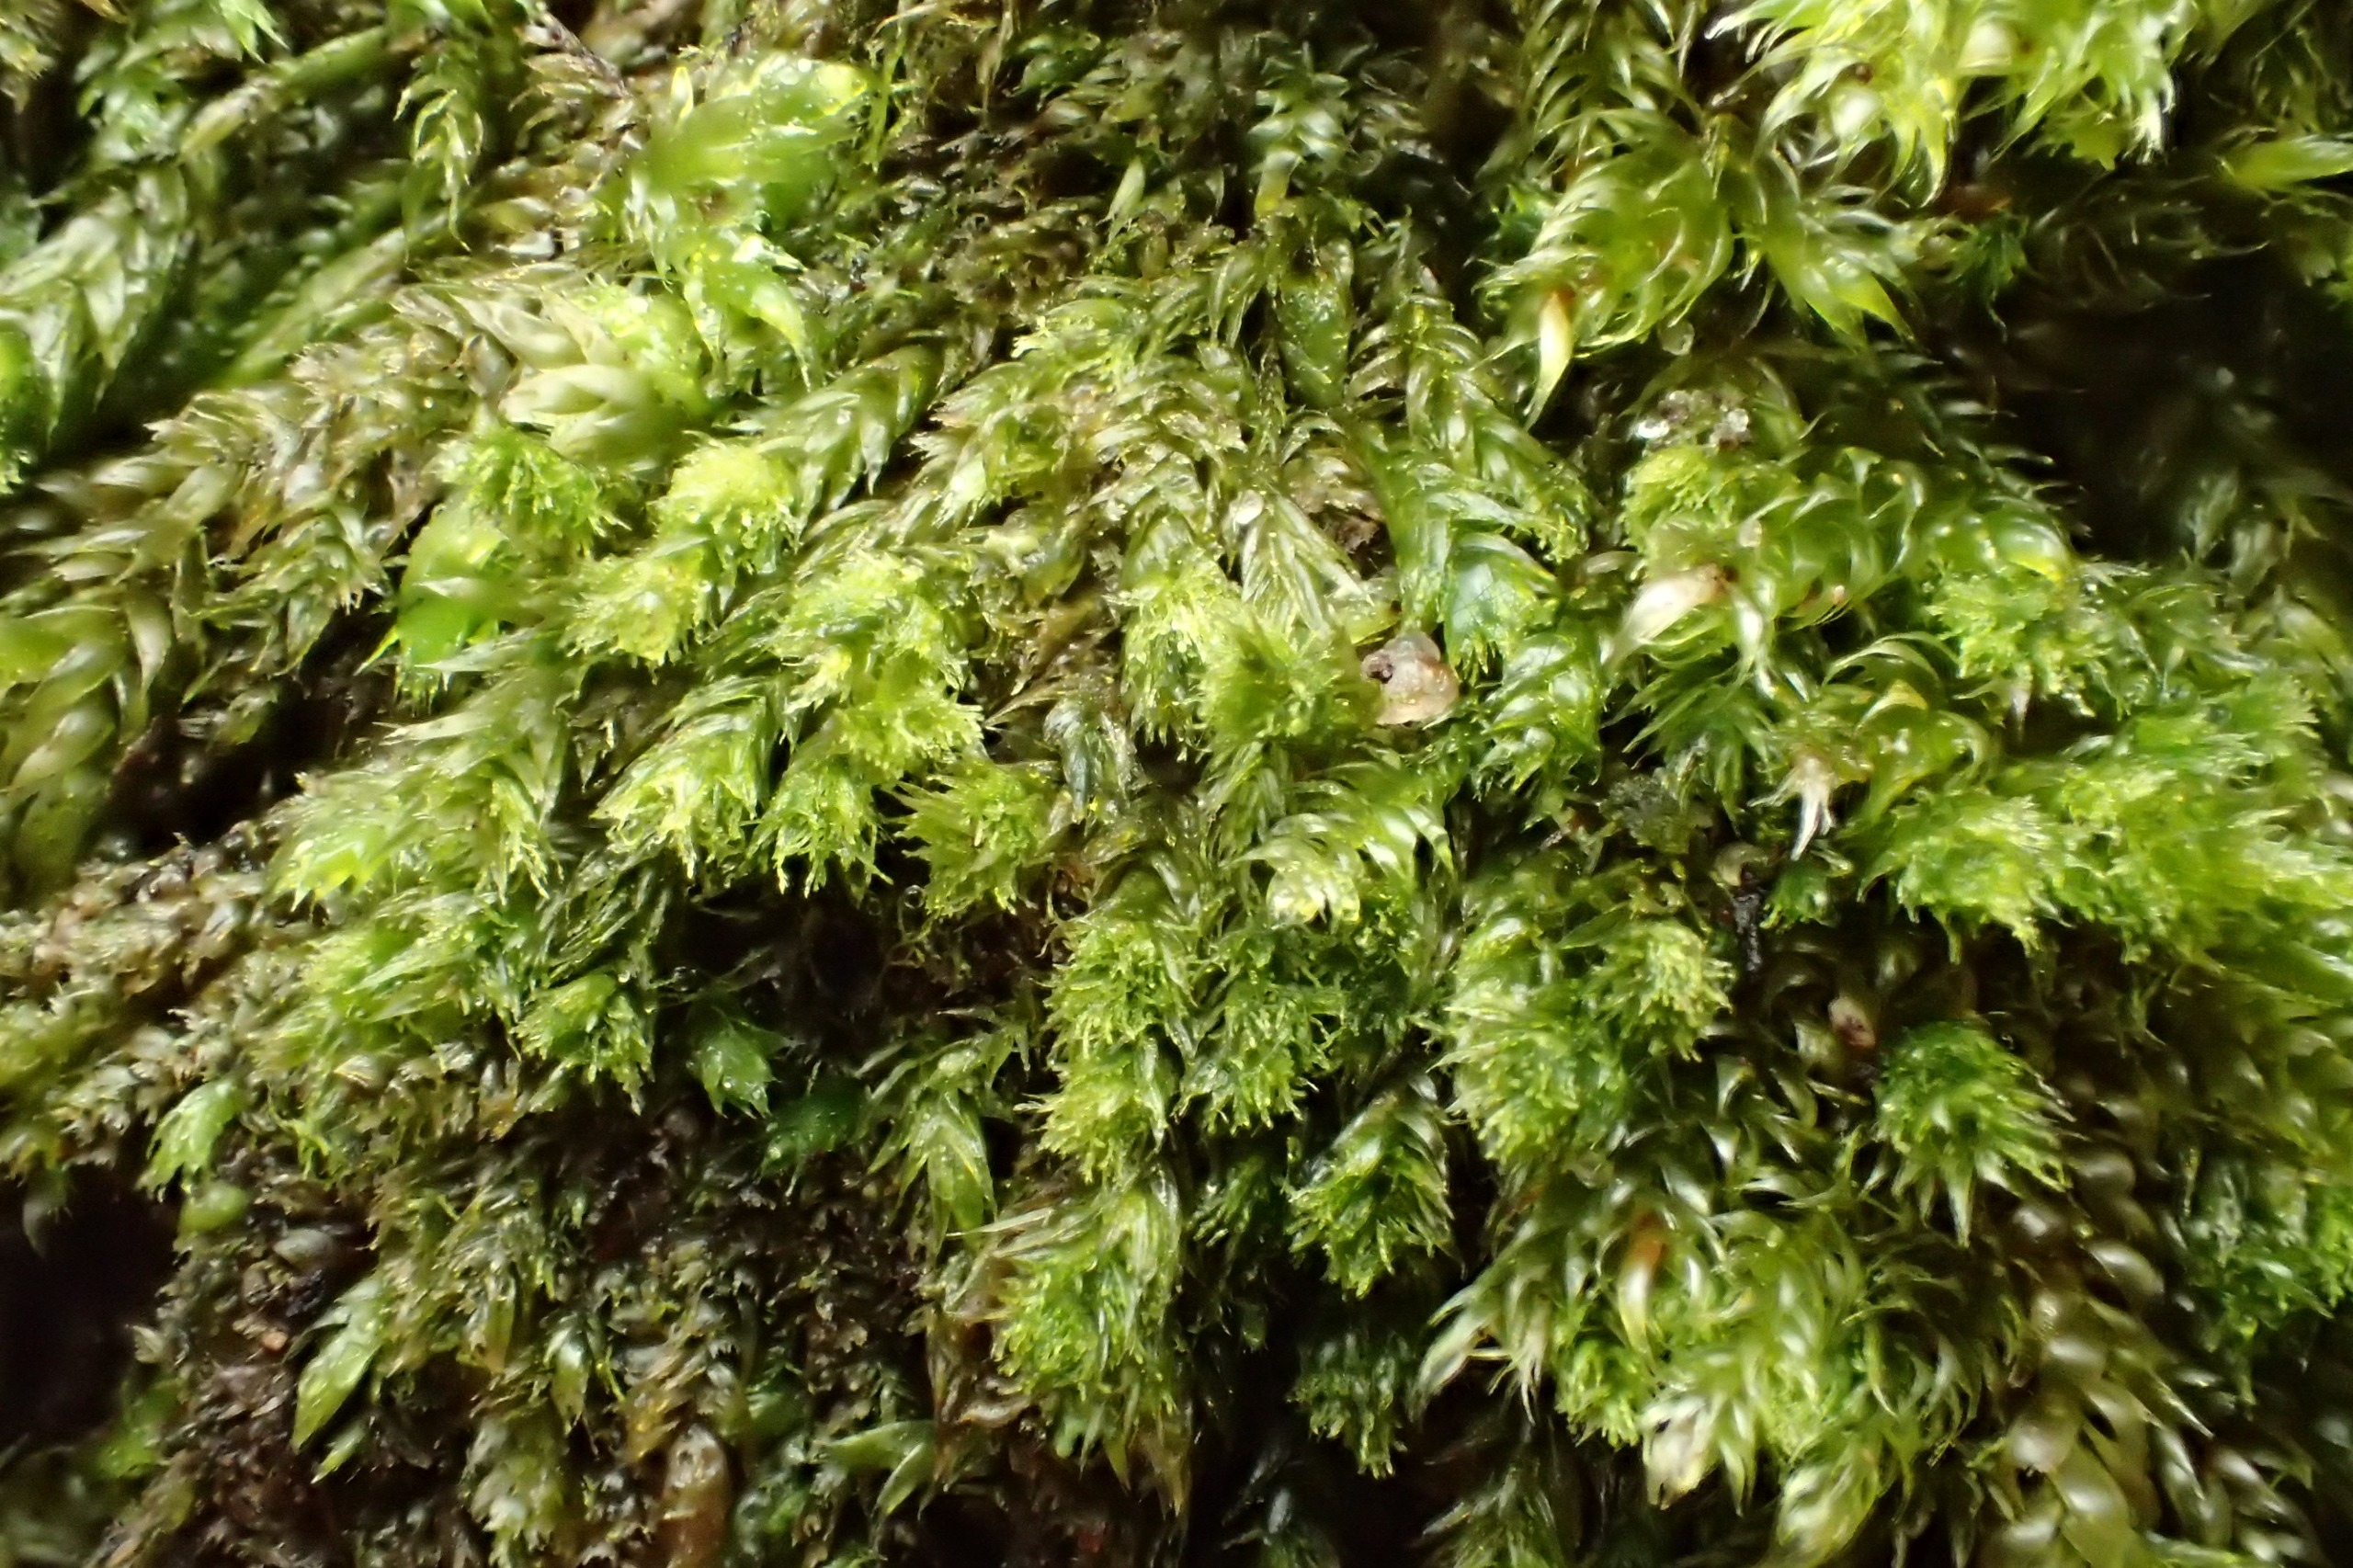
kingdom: Plantae
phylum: Bryophyta
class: Bryopsida
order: Hypnales
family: Plagiotheciaceae
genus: Pseudotaxiphyllum
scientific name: Pseudotaxiphyllum elegans
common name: Skinnende ynglegren
